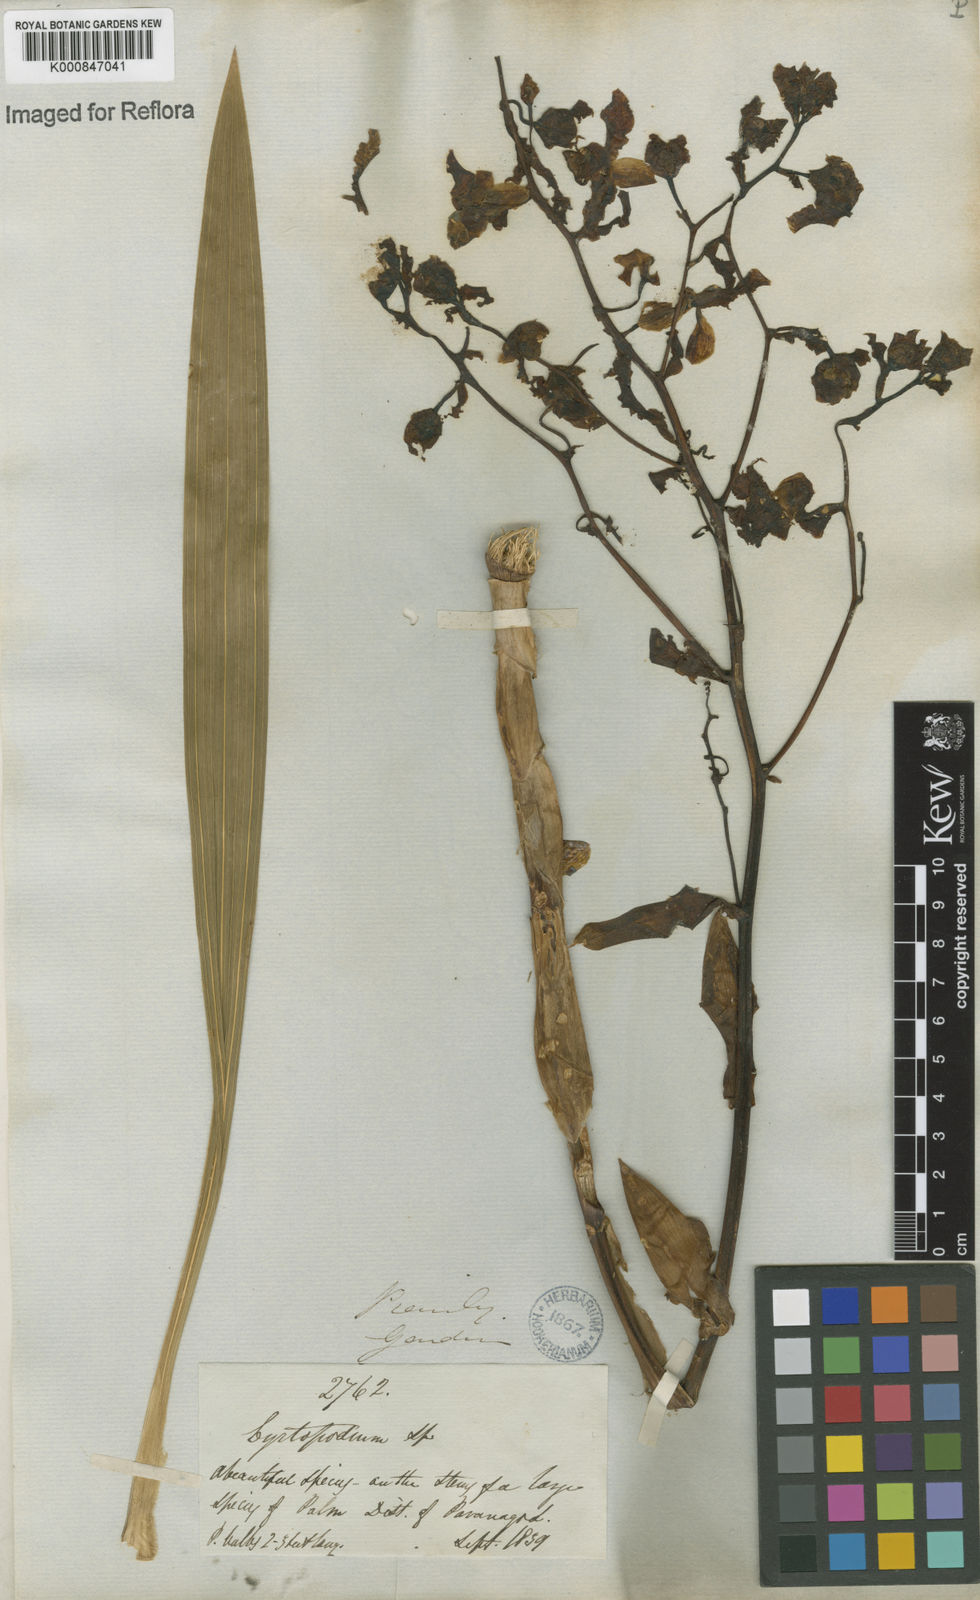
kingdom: Plantae
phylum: Tracheophyta
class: Liliopsida
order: Asparagales
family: Orchidaceae
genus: Cyrtopodium
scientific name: Cyrtopodium punctatum
